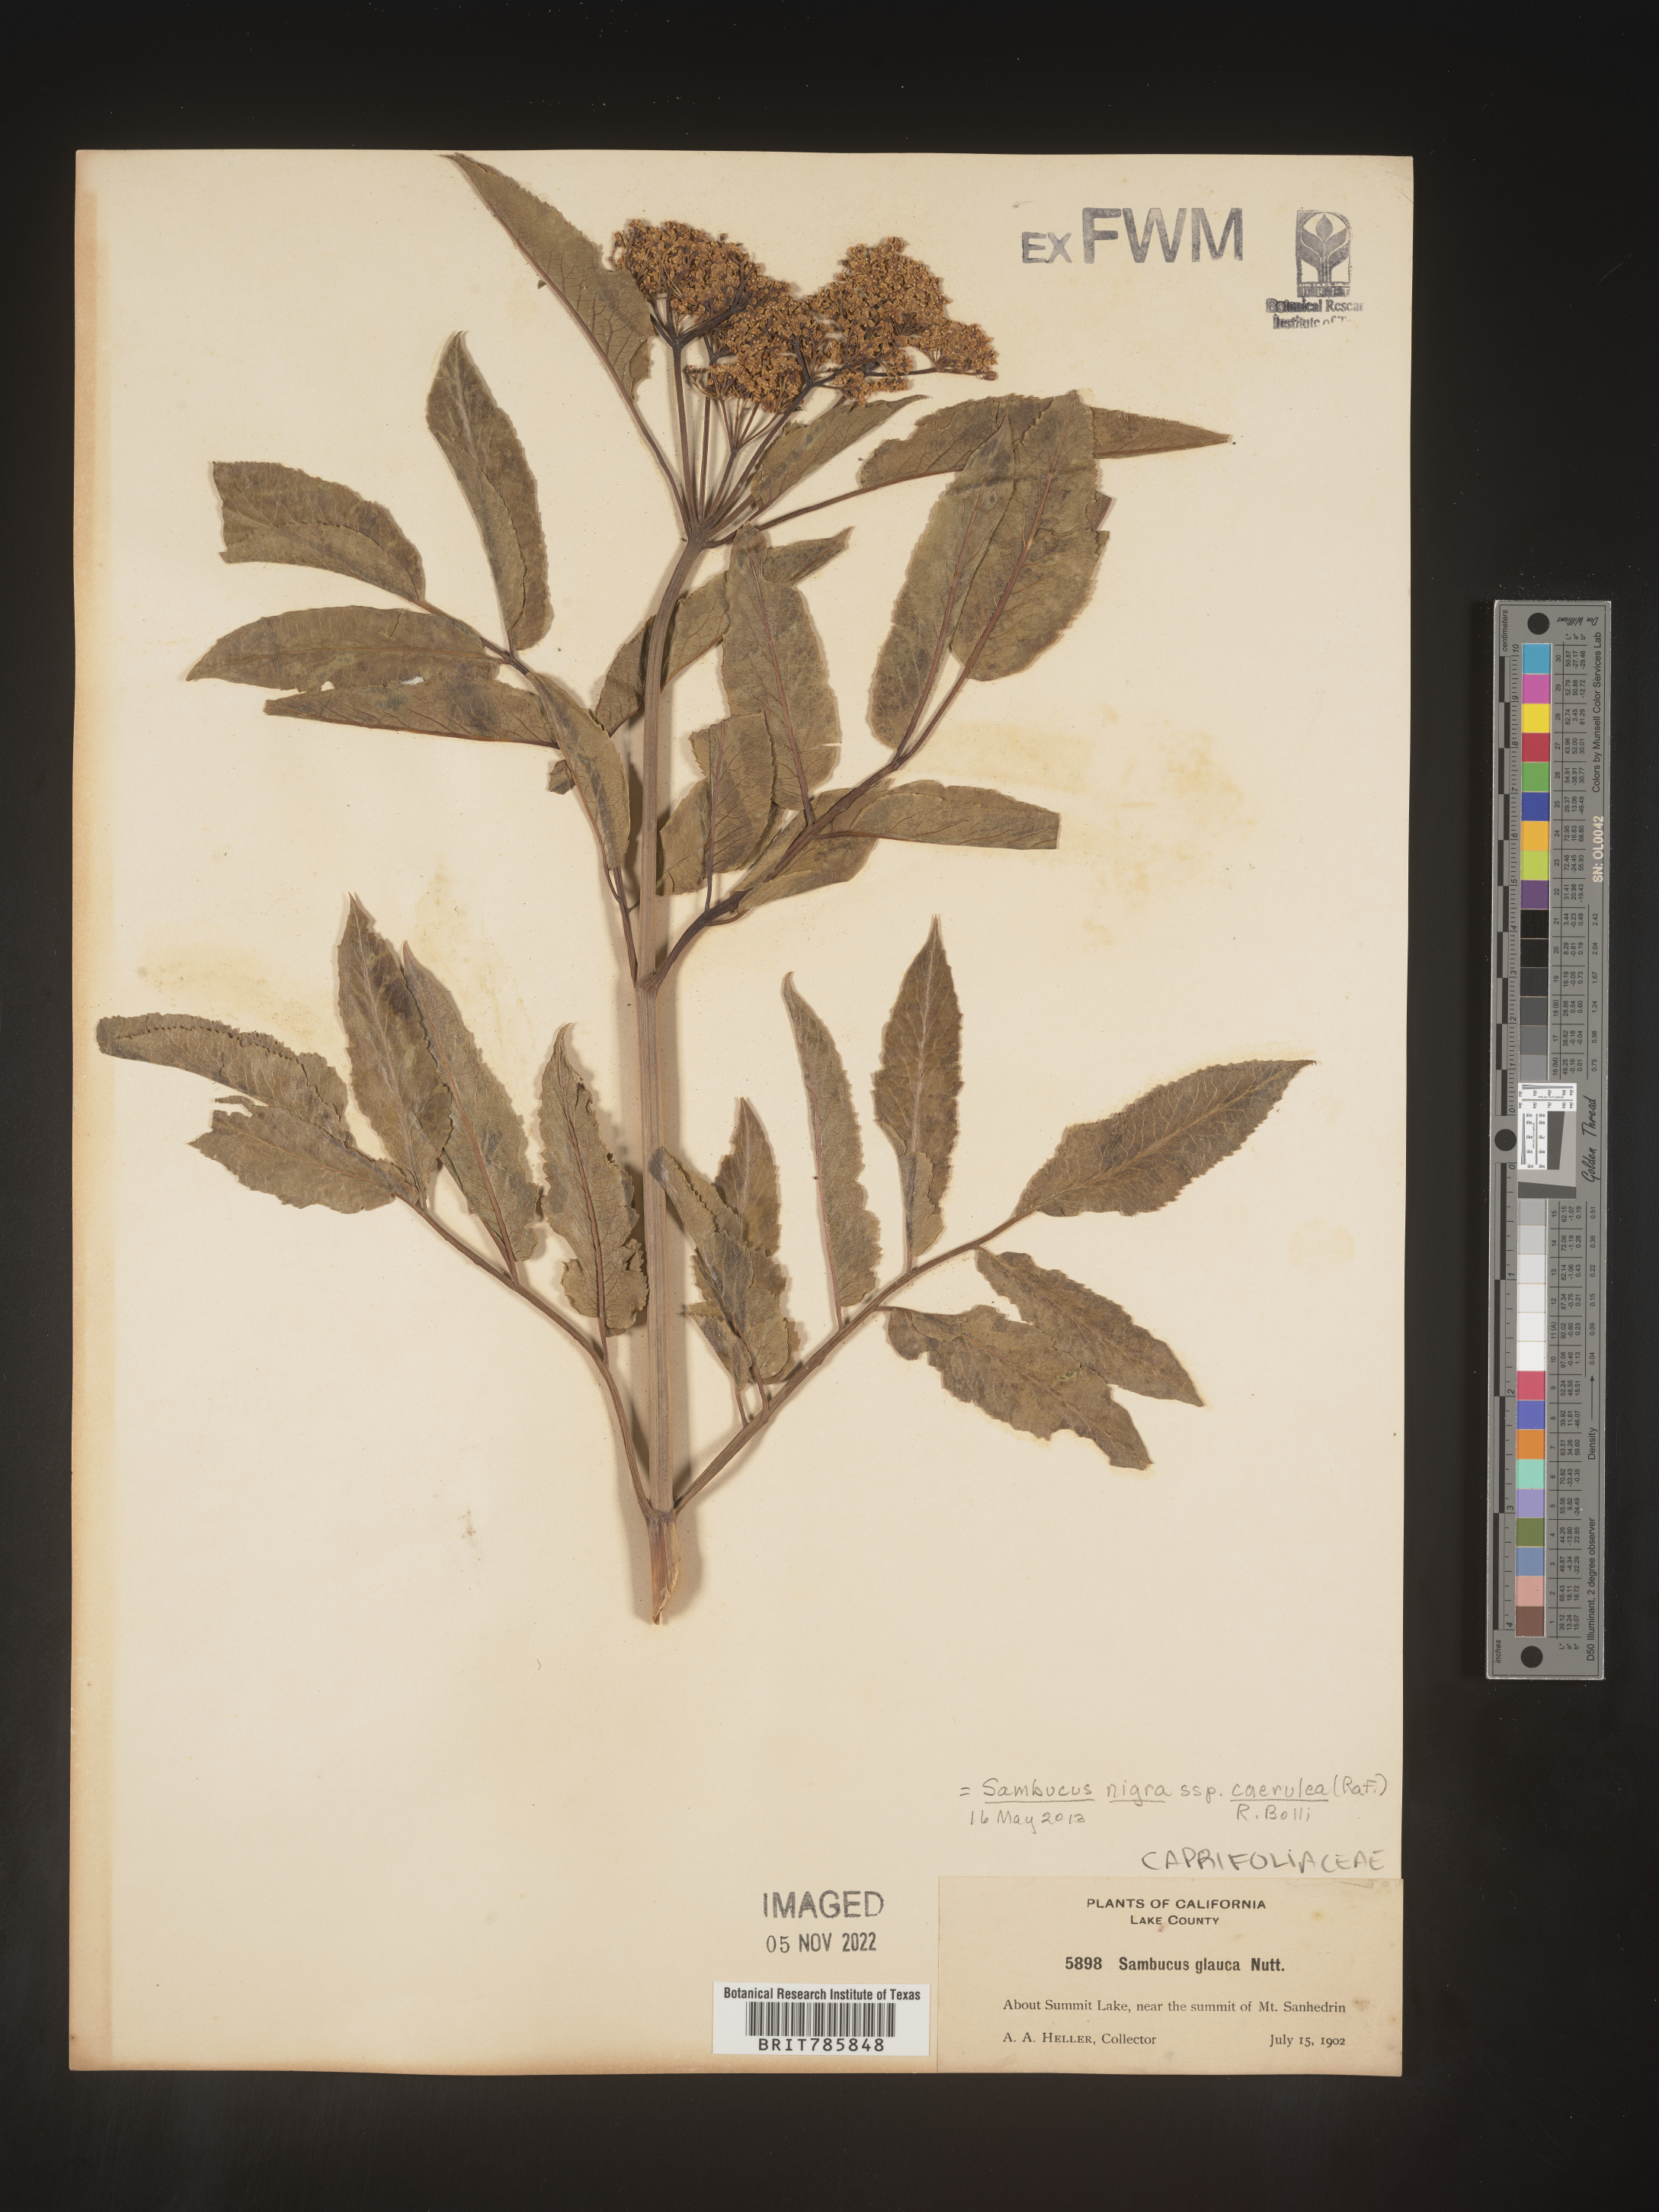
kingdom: Plantae
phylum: Tracheophyta
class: Magnoliopsida
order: Dipsacales
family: Viburnaceae
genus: Sambucus
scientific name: Sambucus nigra
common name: Elder
